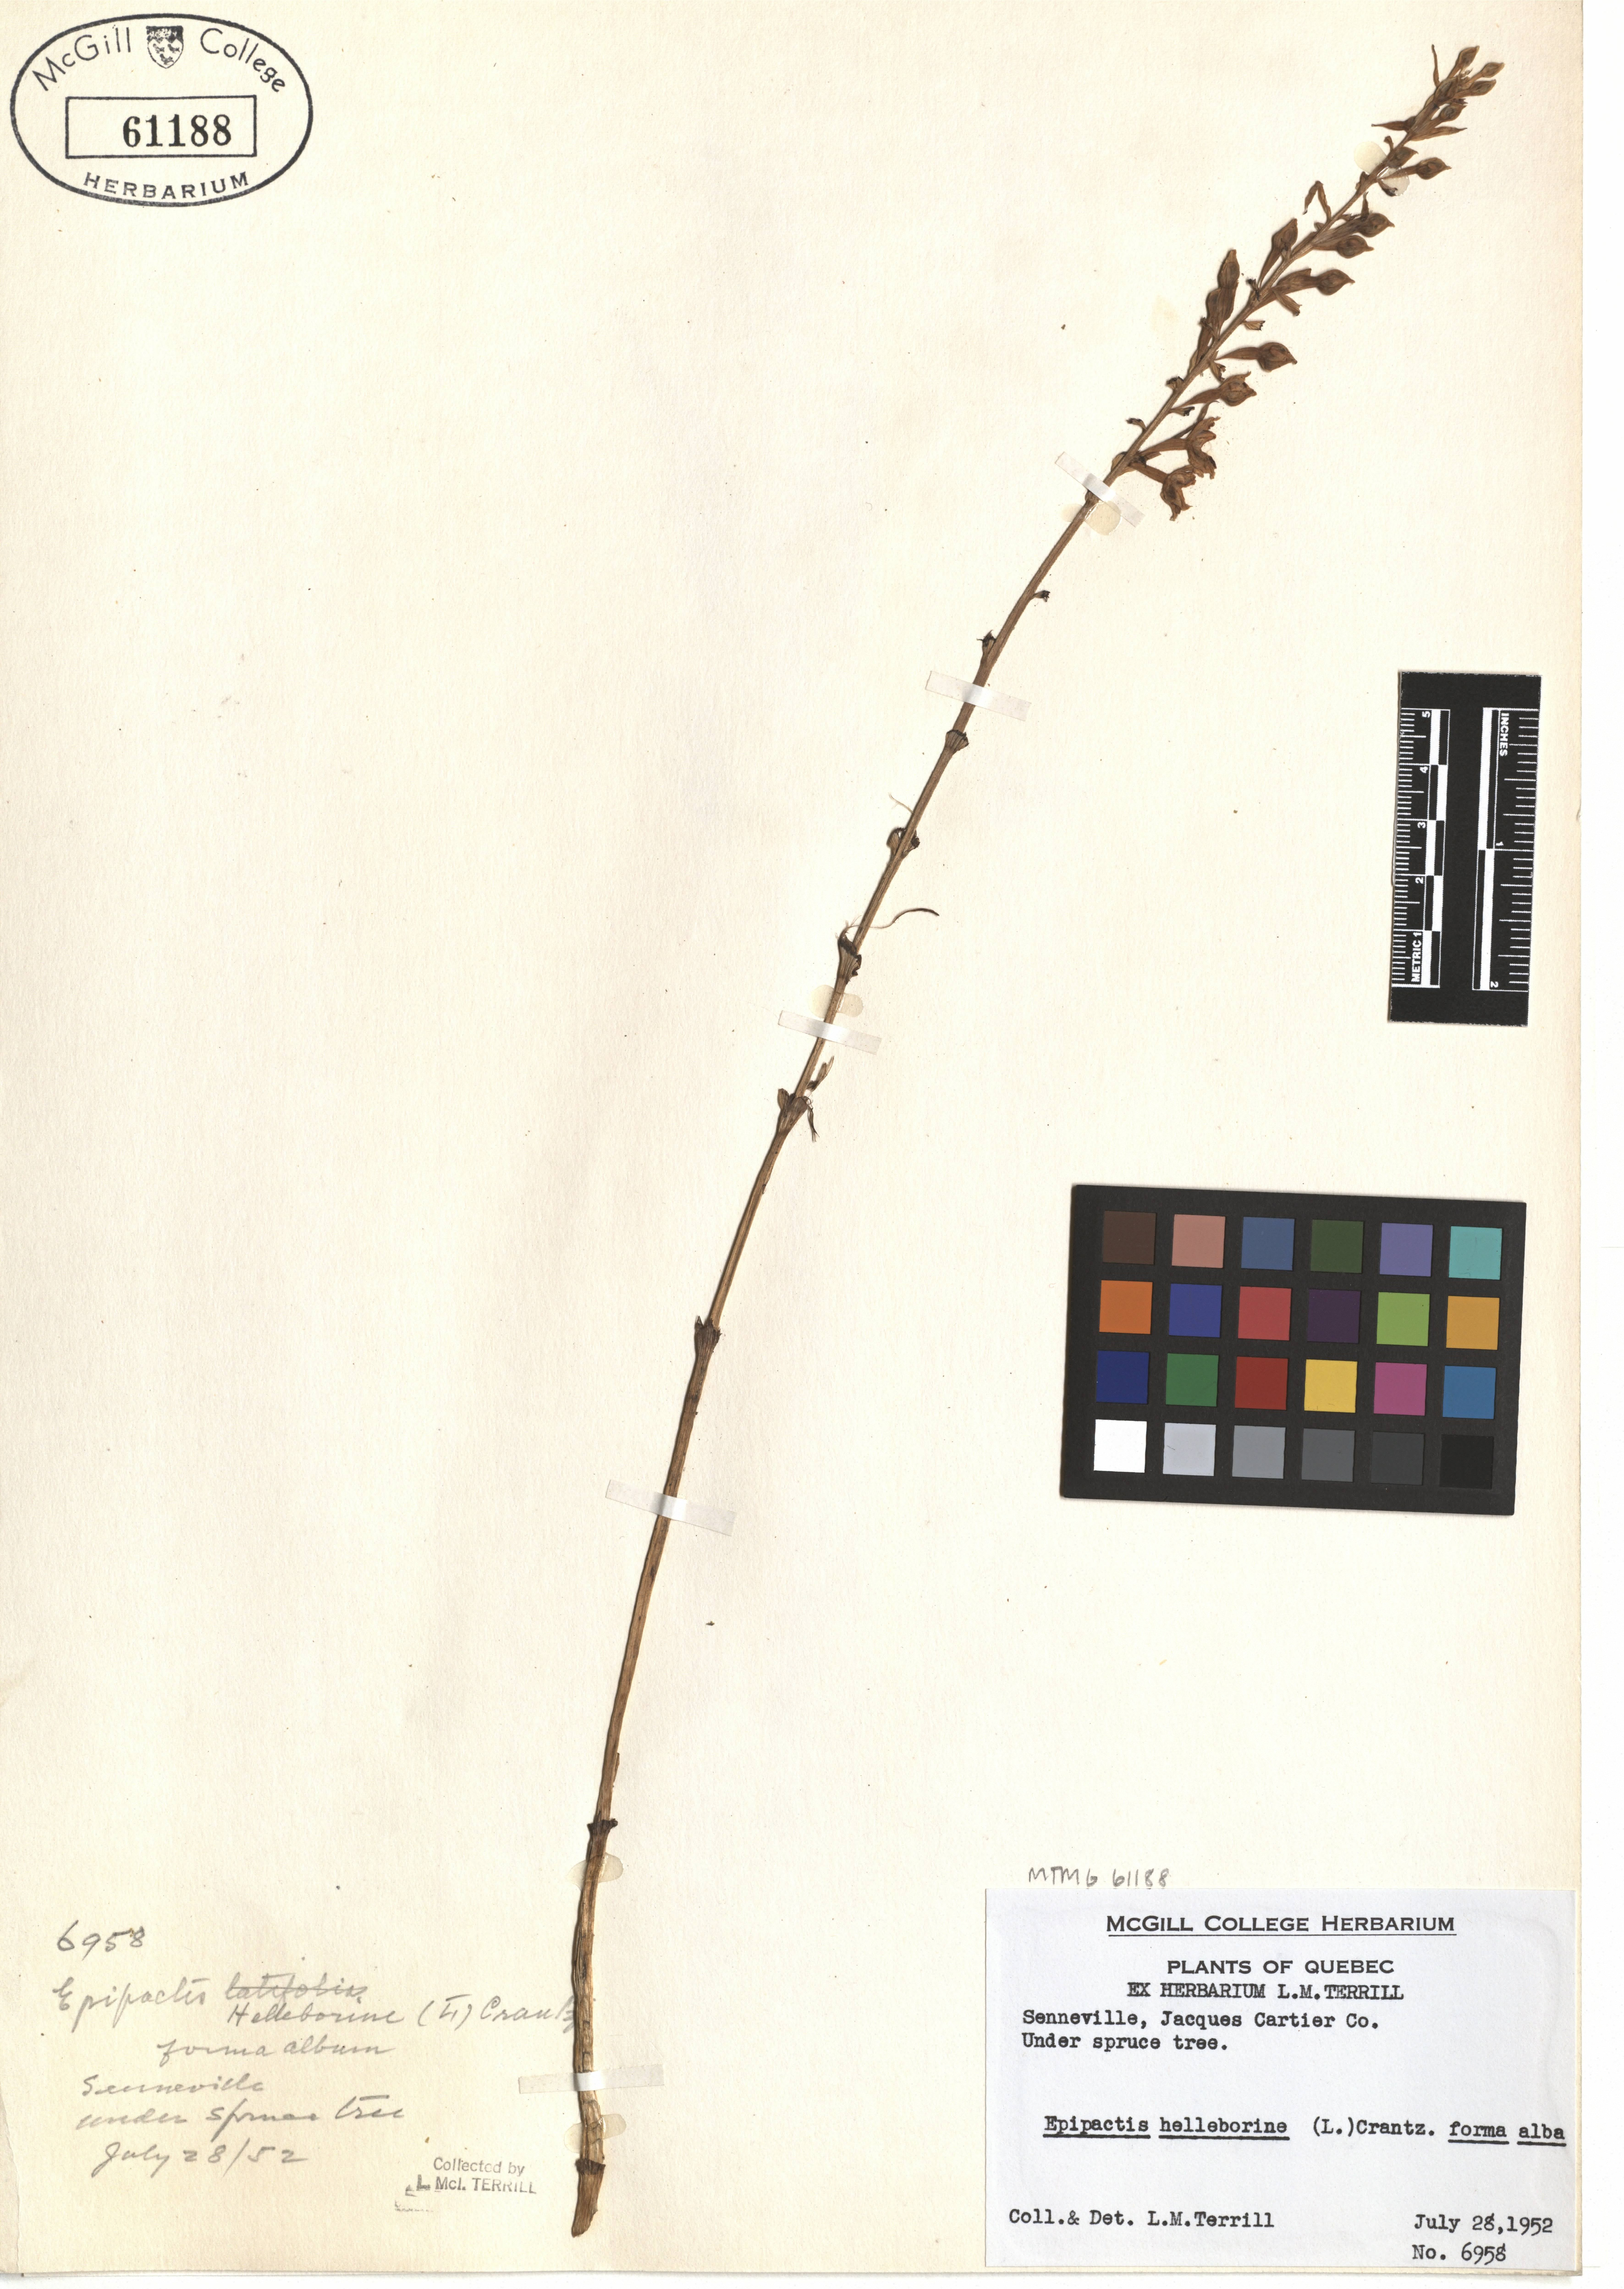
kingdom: Plantae
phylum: Tracheophyta
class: Liliopsida
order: Asparagales
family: Orchidaceae
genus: Epipactis
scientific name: Epipactis helleborine
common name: Broad-leaved helleborine
